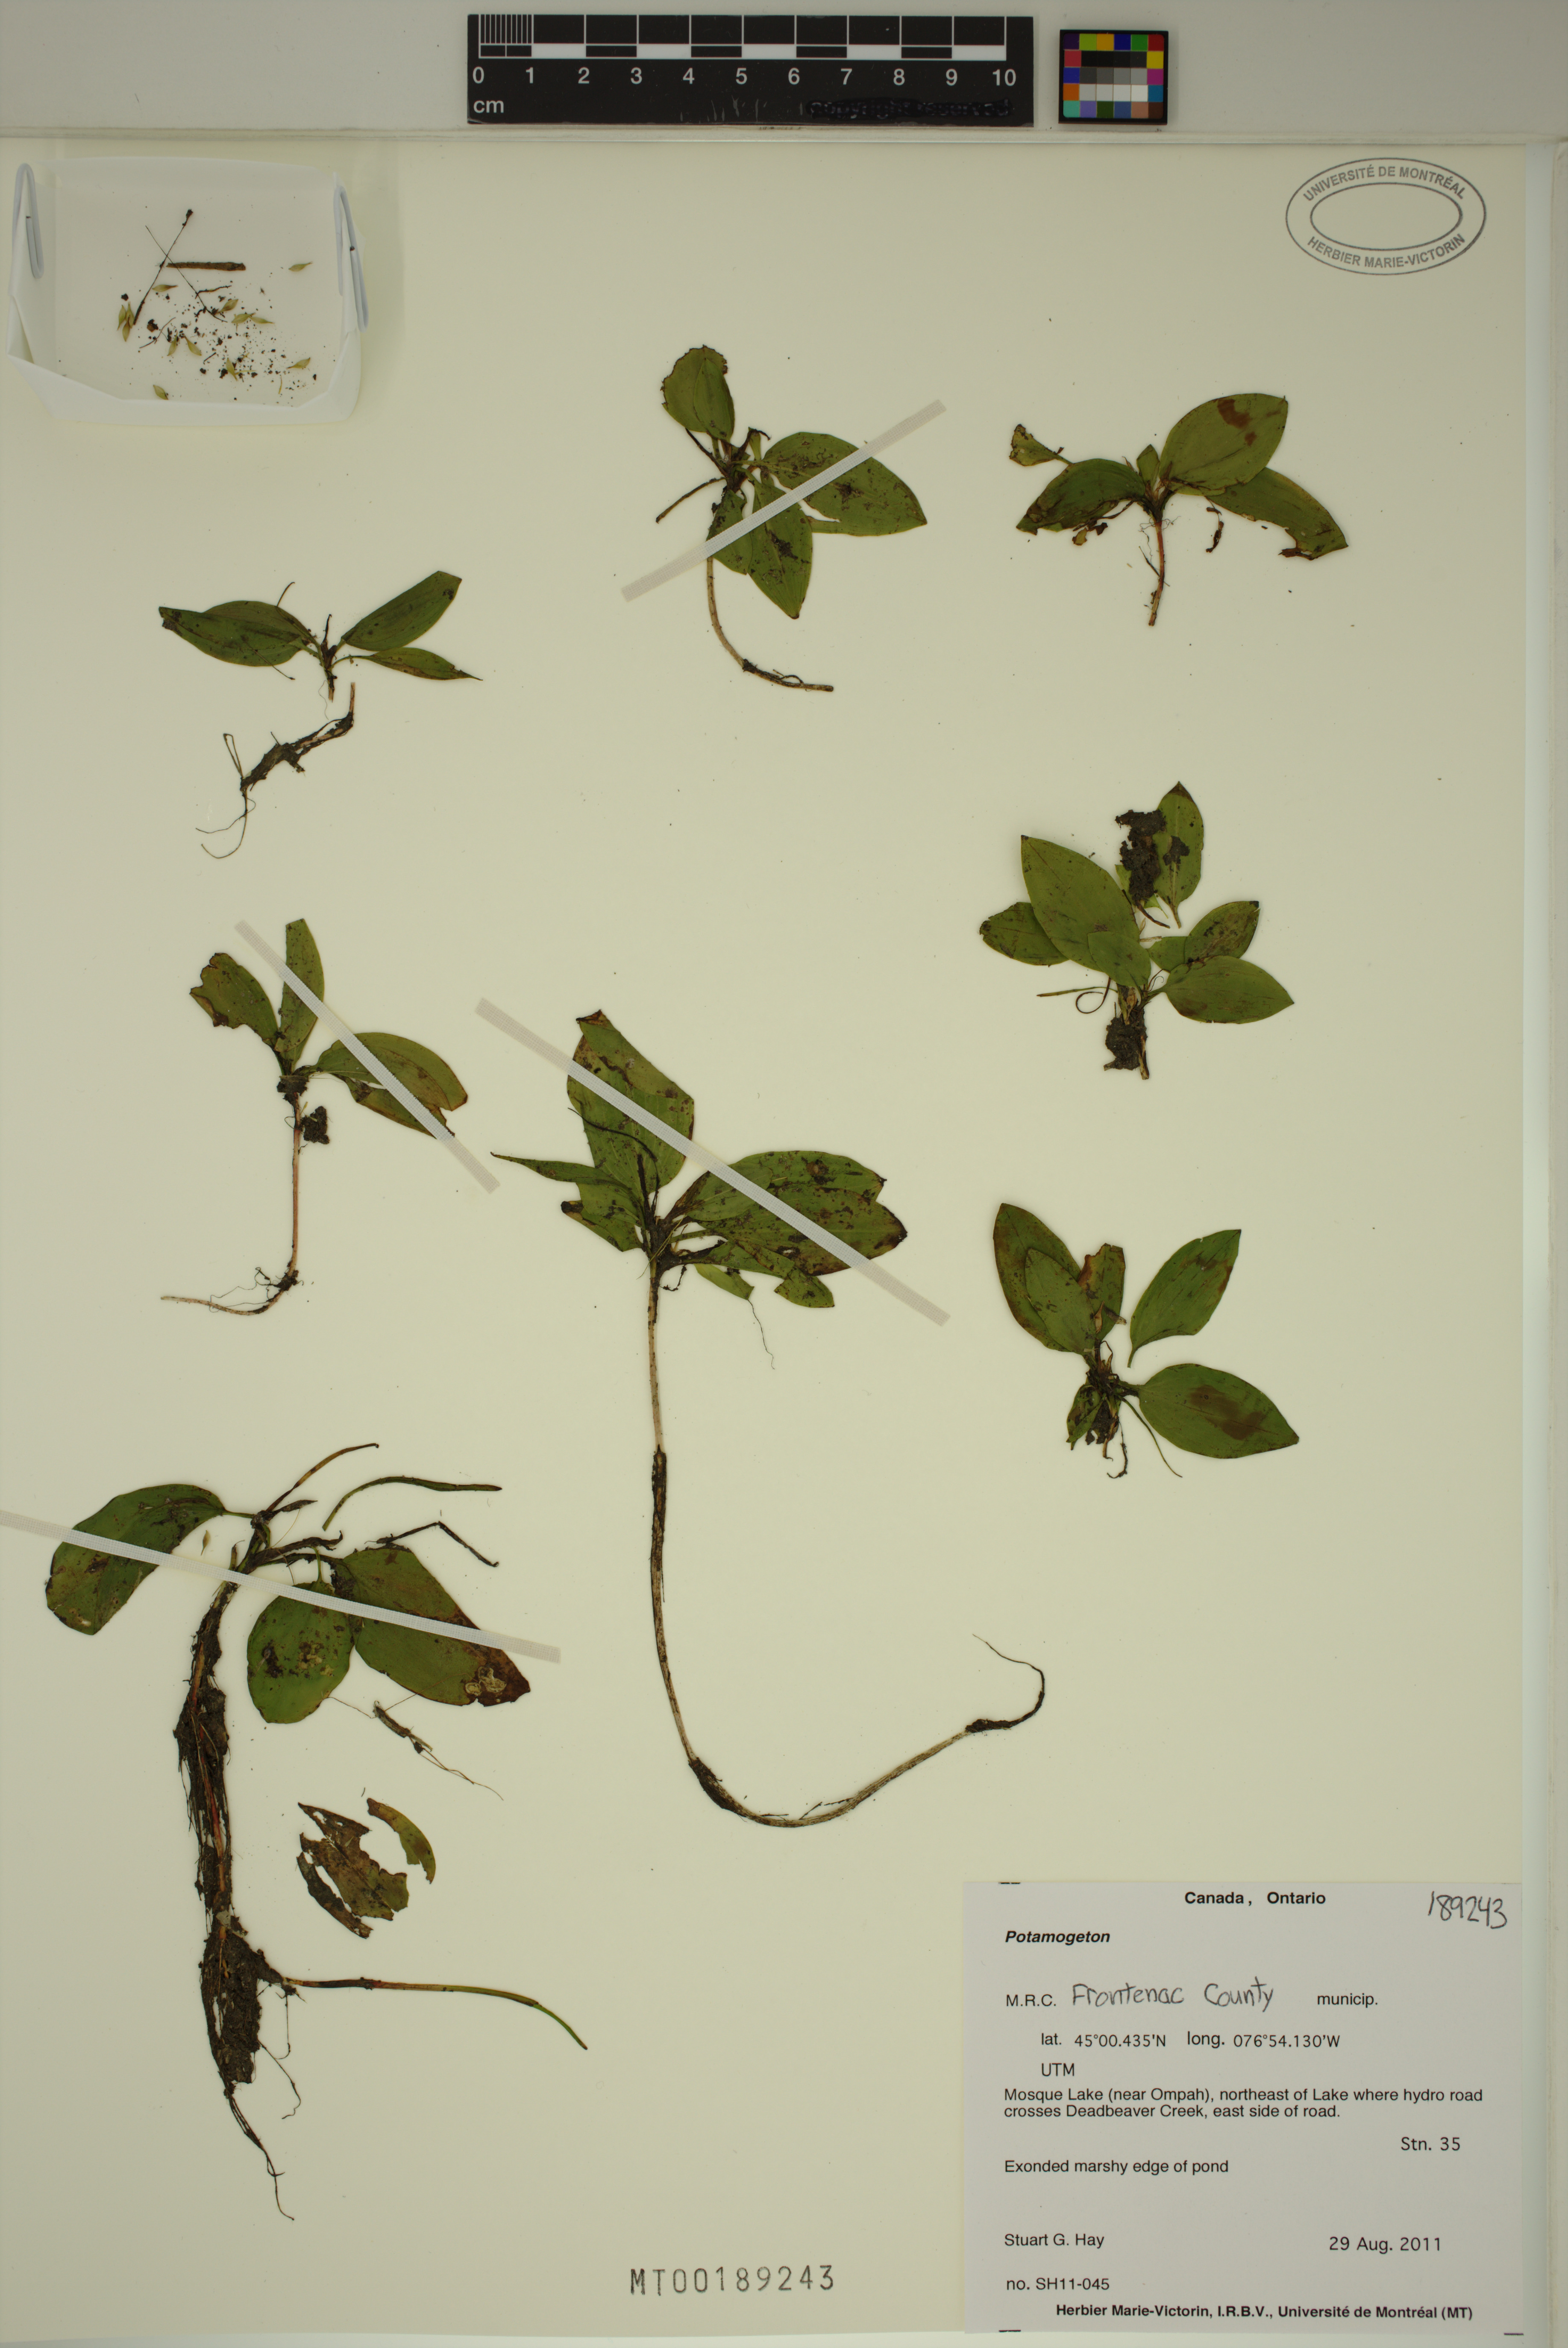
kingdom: Plantae
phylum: Tracheophyta
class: Liliopsida
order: Alismatales
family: Potamogetonaceae
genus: Potamogeton
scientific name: Potamogeton
